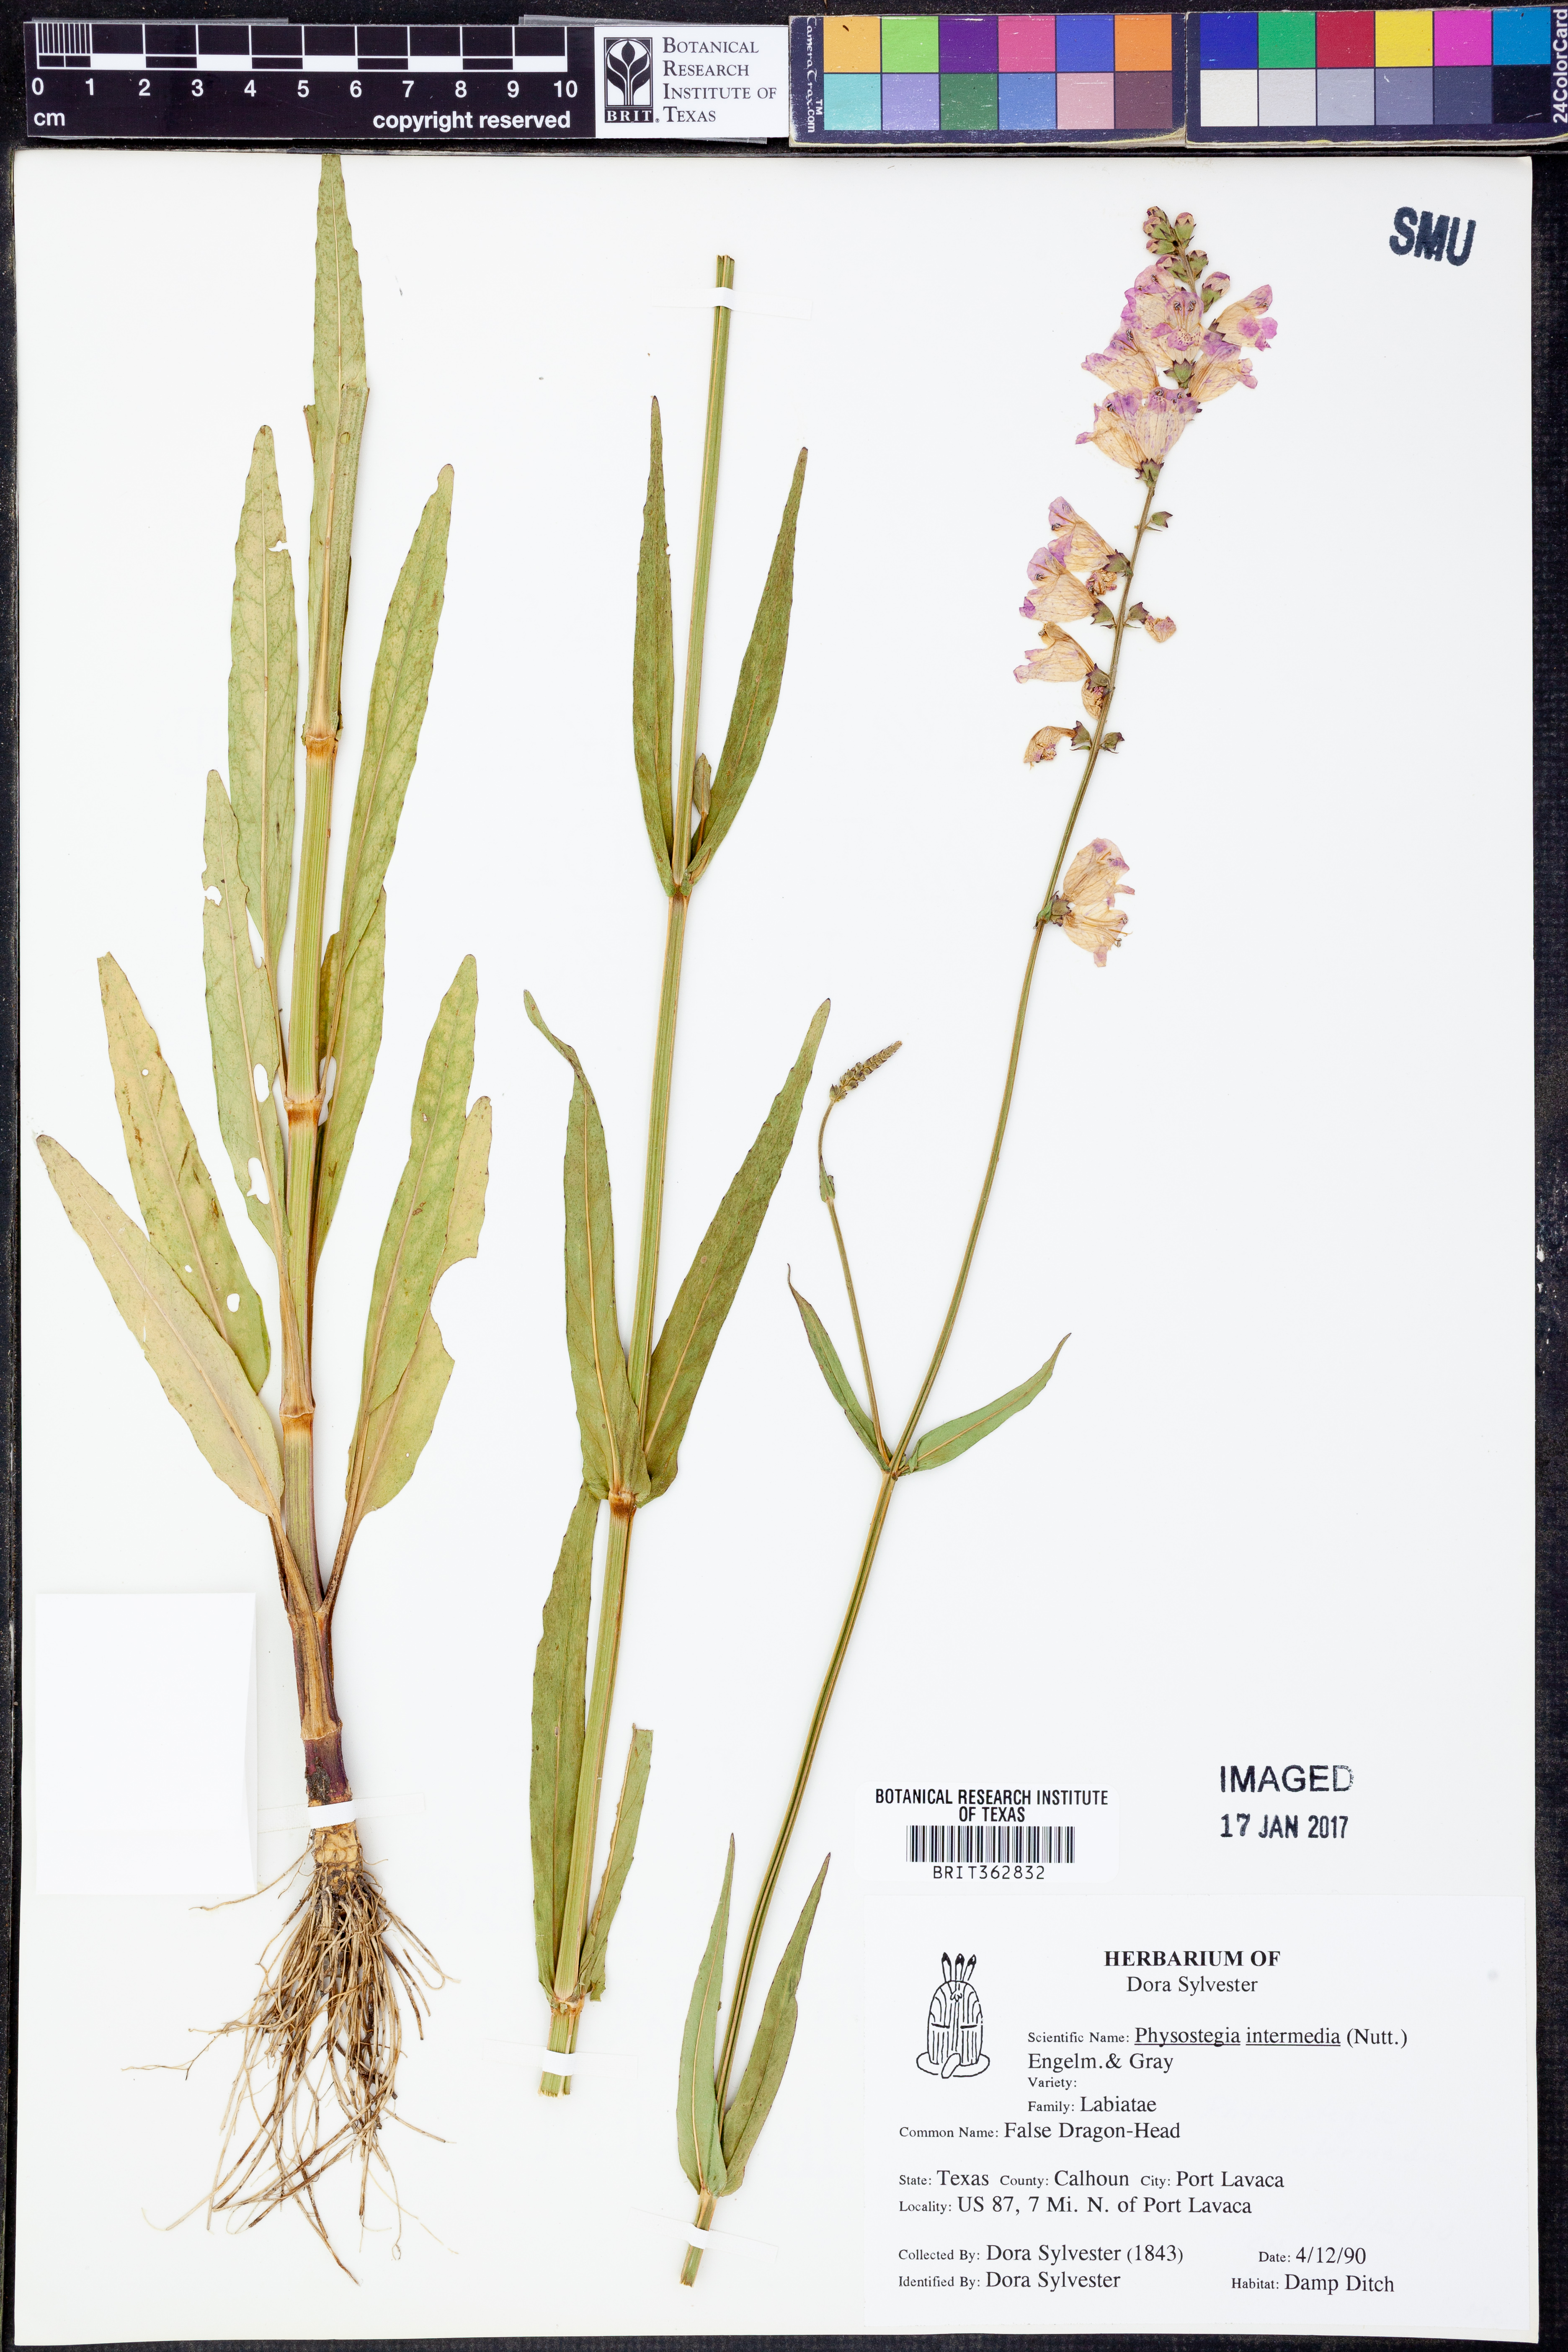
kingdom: Plantae
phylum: Tracheophyta
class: Magnoliopsida
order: Lamiales
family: Lamiaceae
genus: Physostegia
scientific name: Physostegia intermedia
